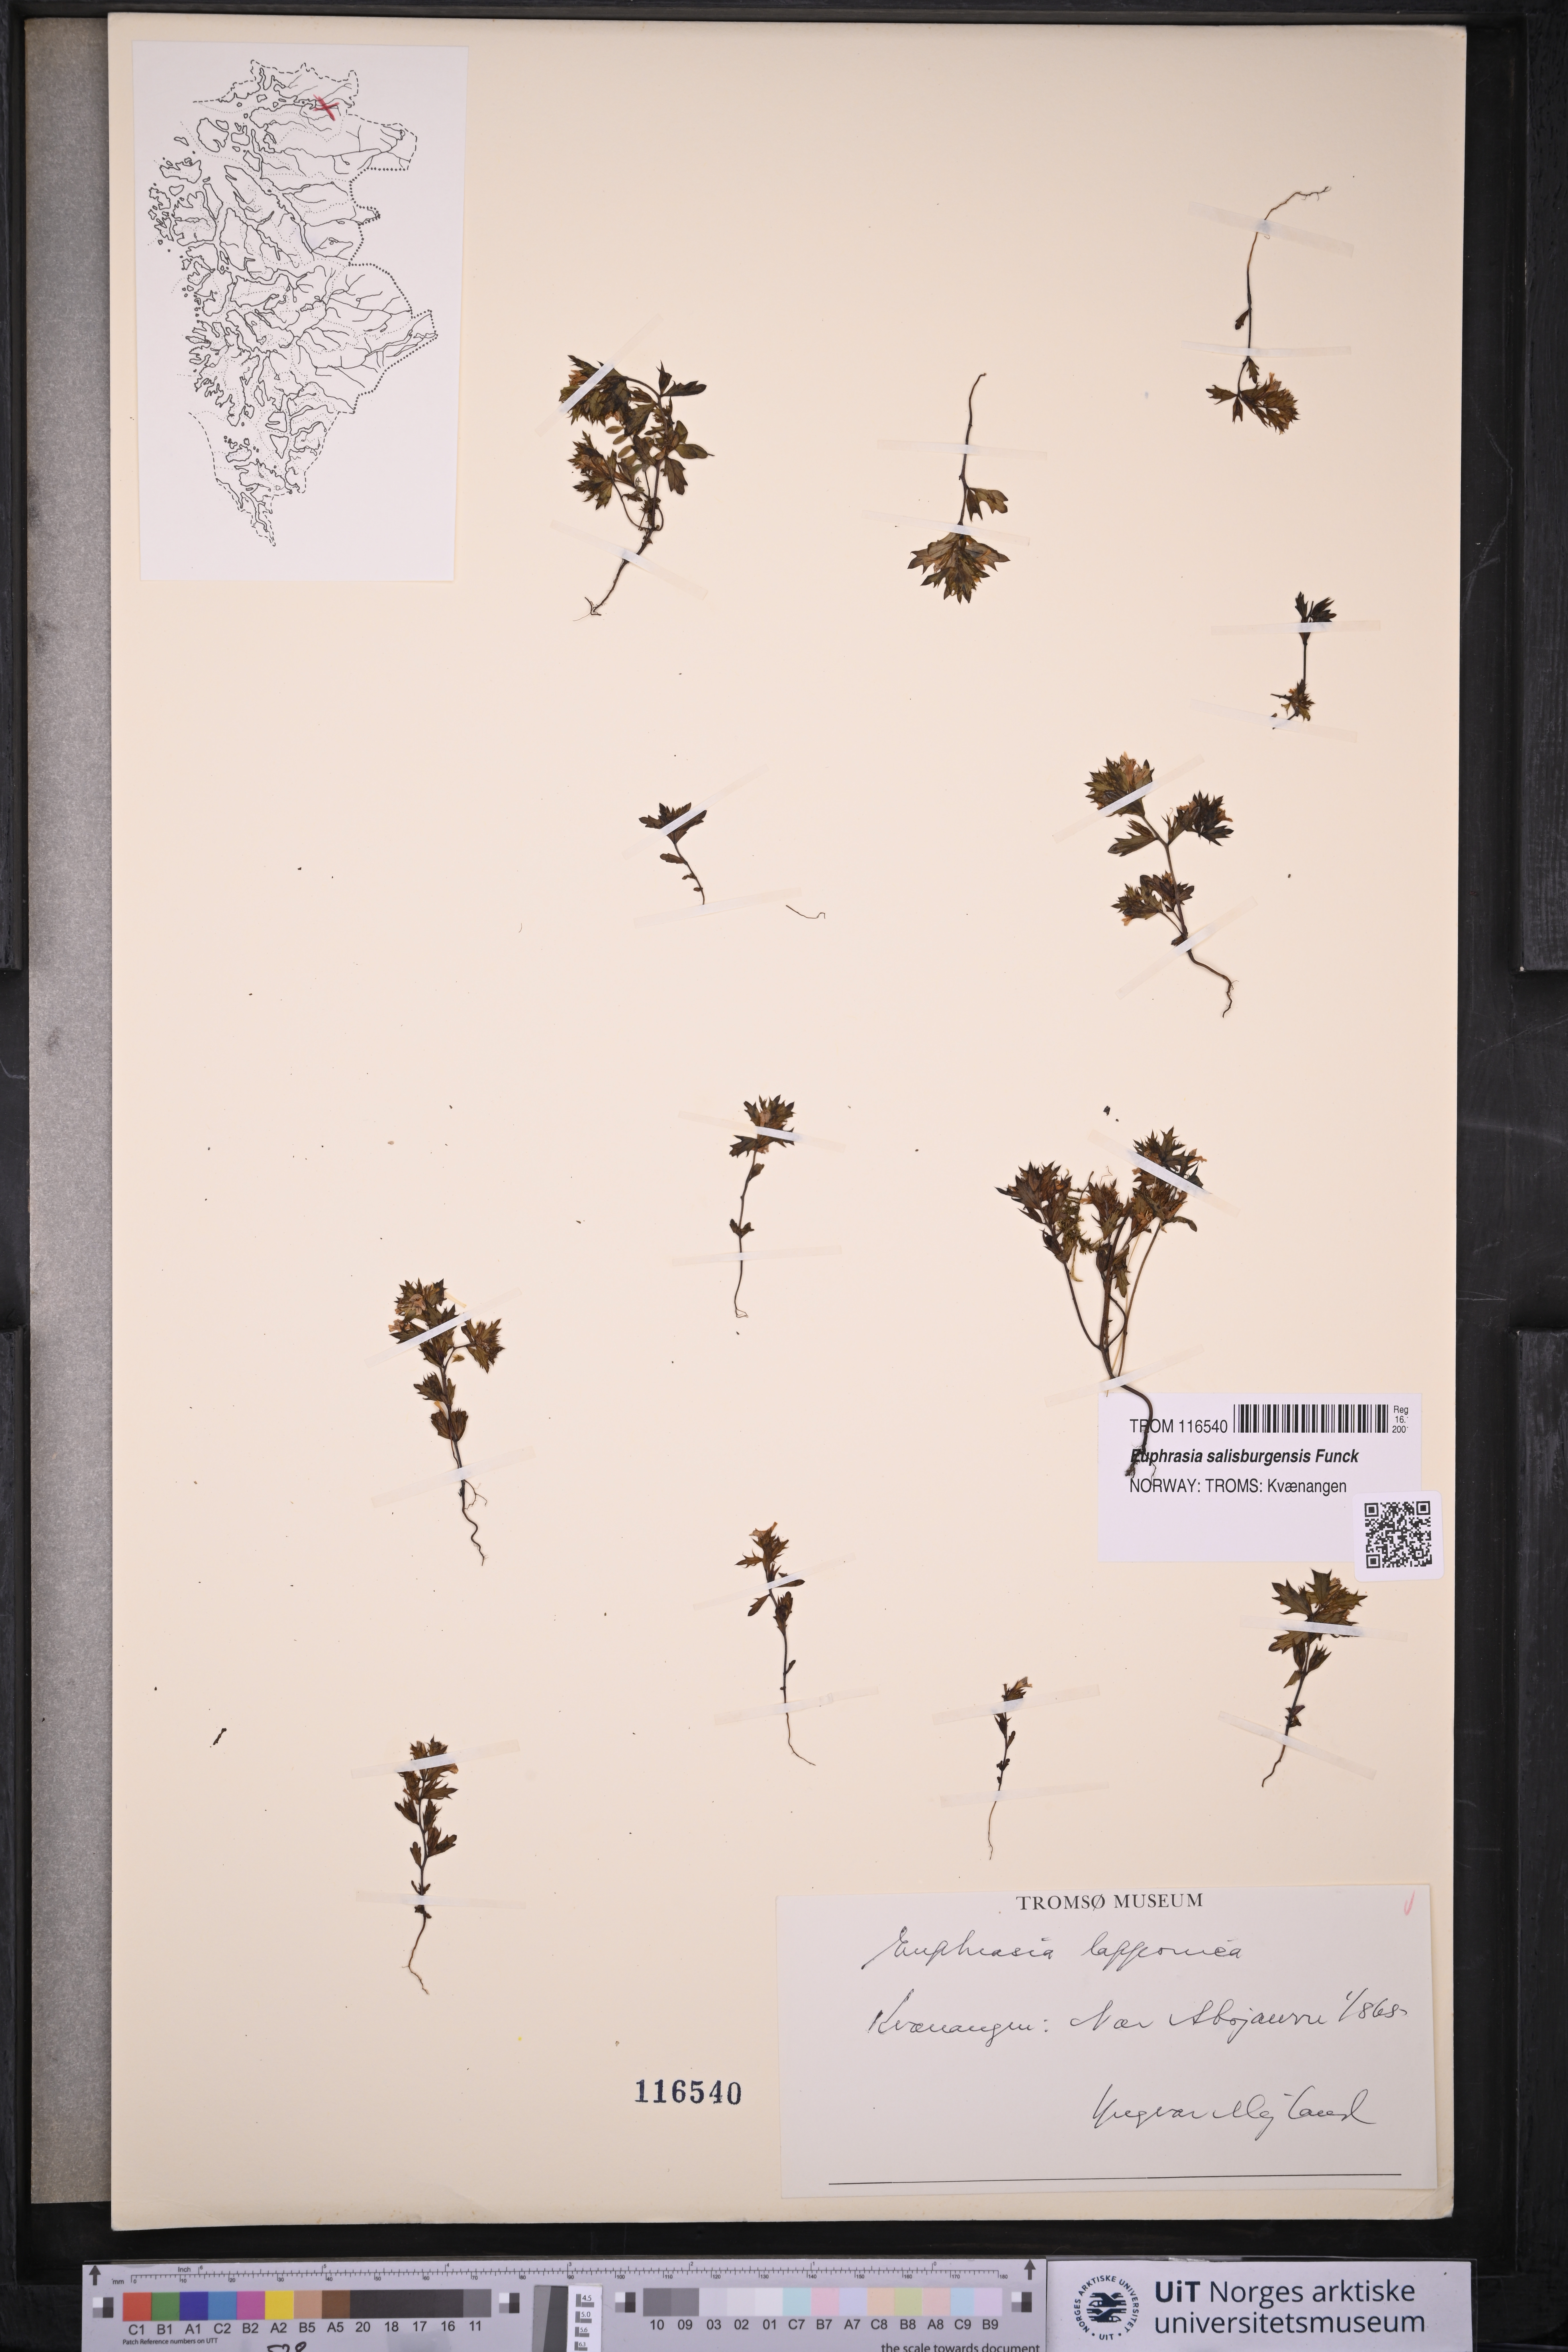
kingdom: Plantae
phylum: Tracheophyta
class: Magnoliopsida
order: Lamiales
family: Orobanchaceae
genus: Euphrasia
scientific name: Euphrasia salisburgensis
